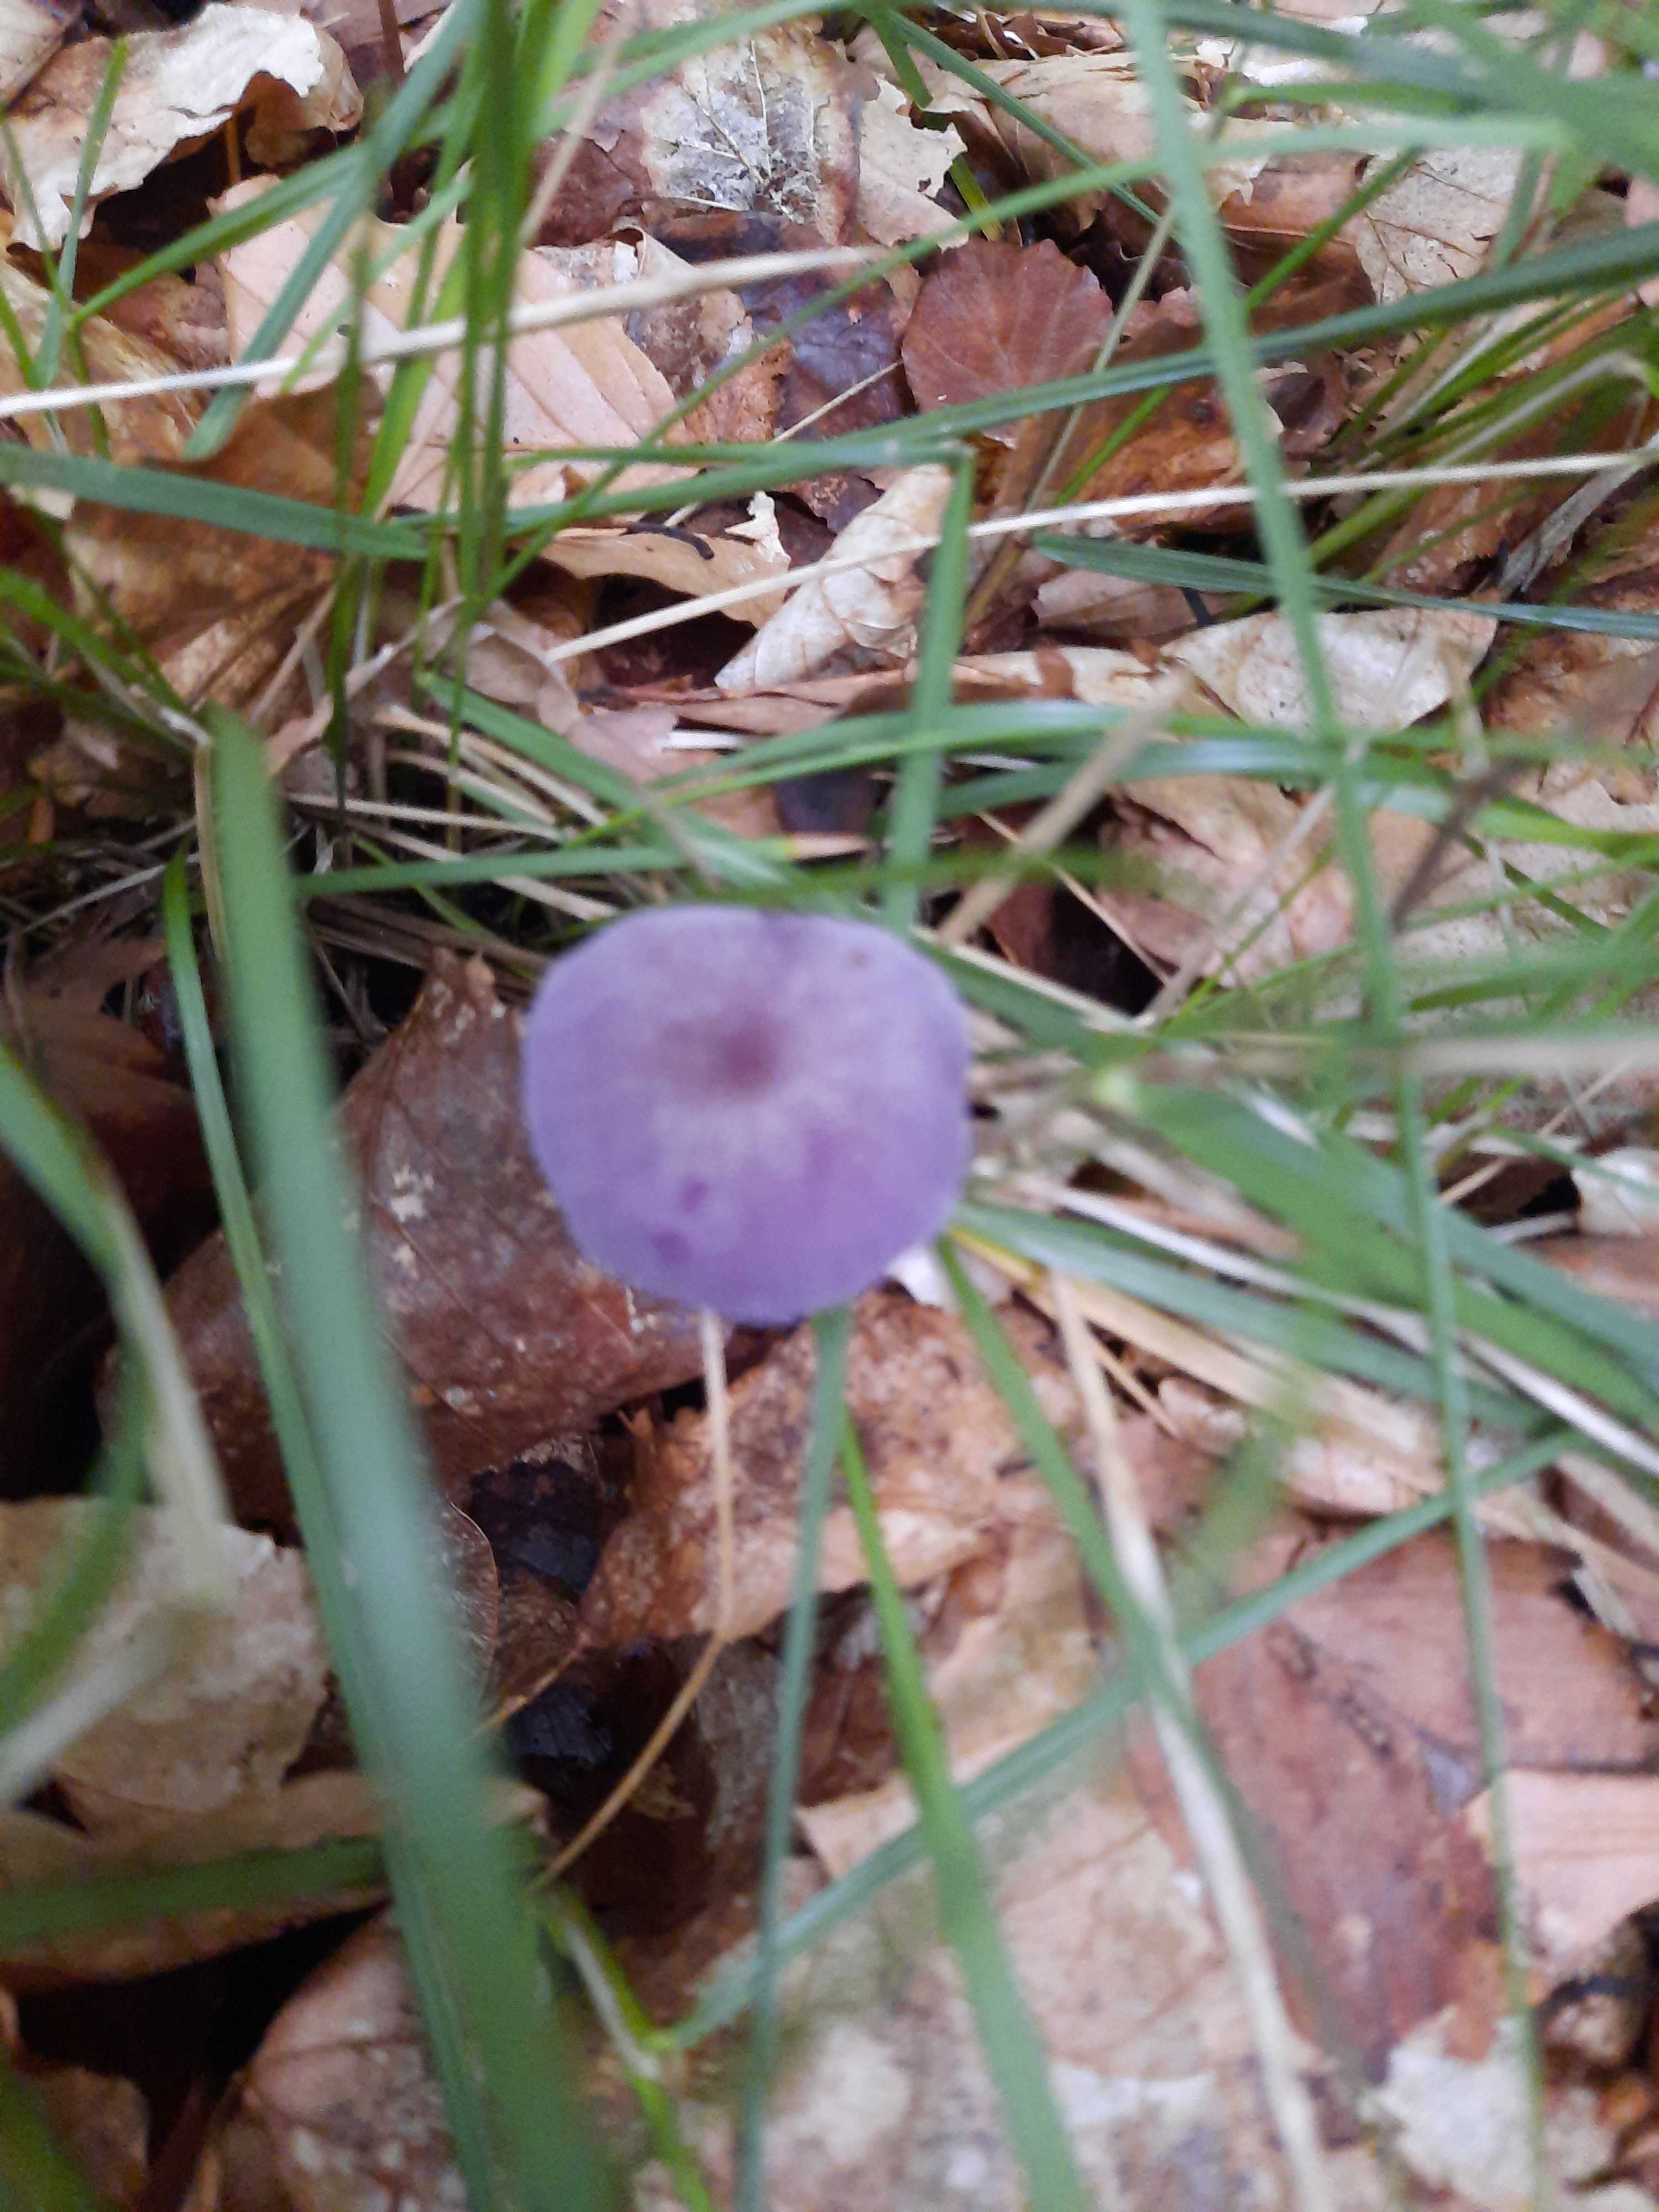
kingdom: Fungi
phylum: Basidiomycota
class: Agaricomycetes
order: Agaricales
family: Hydnangiaceae
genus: Laccaria
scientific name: Laccaria amethystina
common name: violet ametysthat
